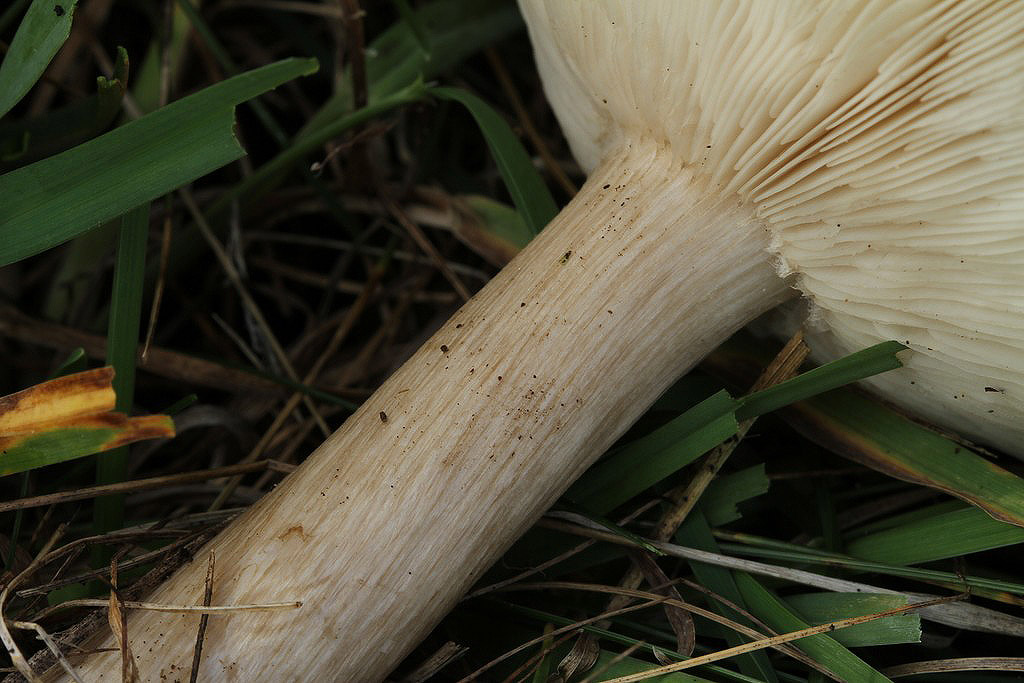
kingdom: Fungi
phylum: Basidiomycota
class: Agaricomycetes
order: Agaricales
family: Tricholomataceae
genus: Melanoleuca
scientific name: Melanoleuca grammopodia
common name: stribestokket munkehat
